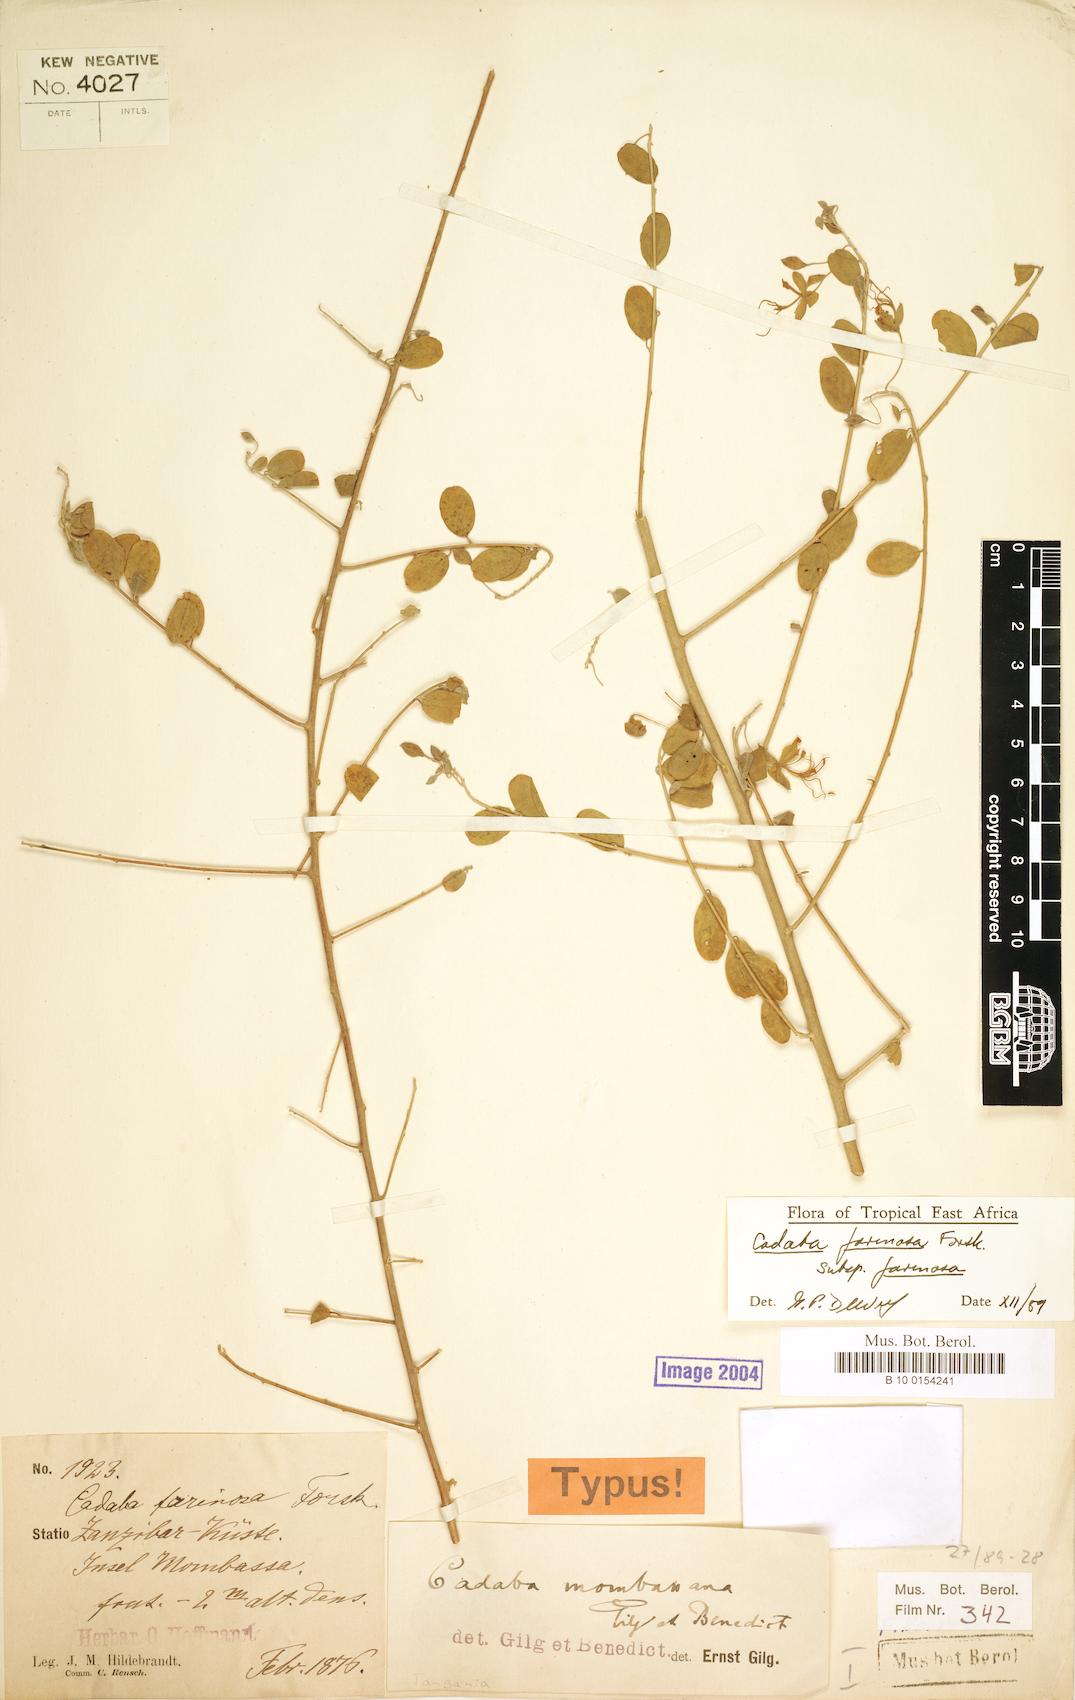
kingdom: Plantae
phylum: Tracheophyta
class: Magnoliopsida
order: Brassicales
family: Capparaceae
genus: Cadaba
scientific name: Cadaba farinosa
